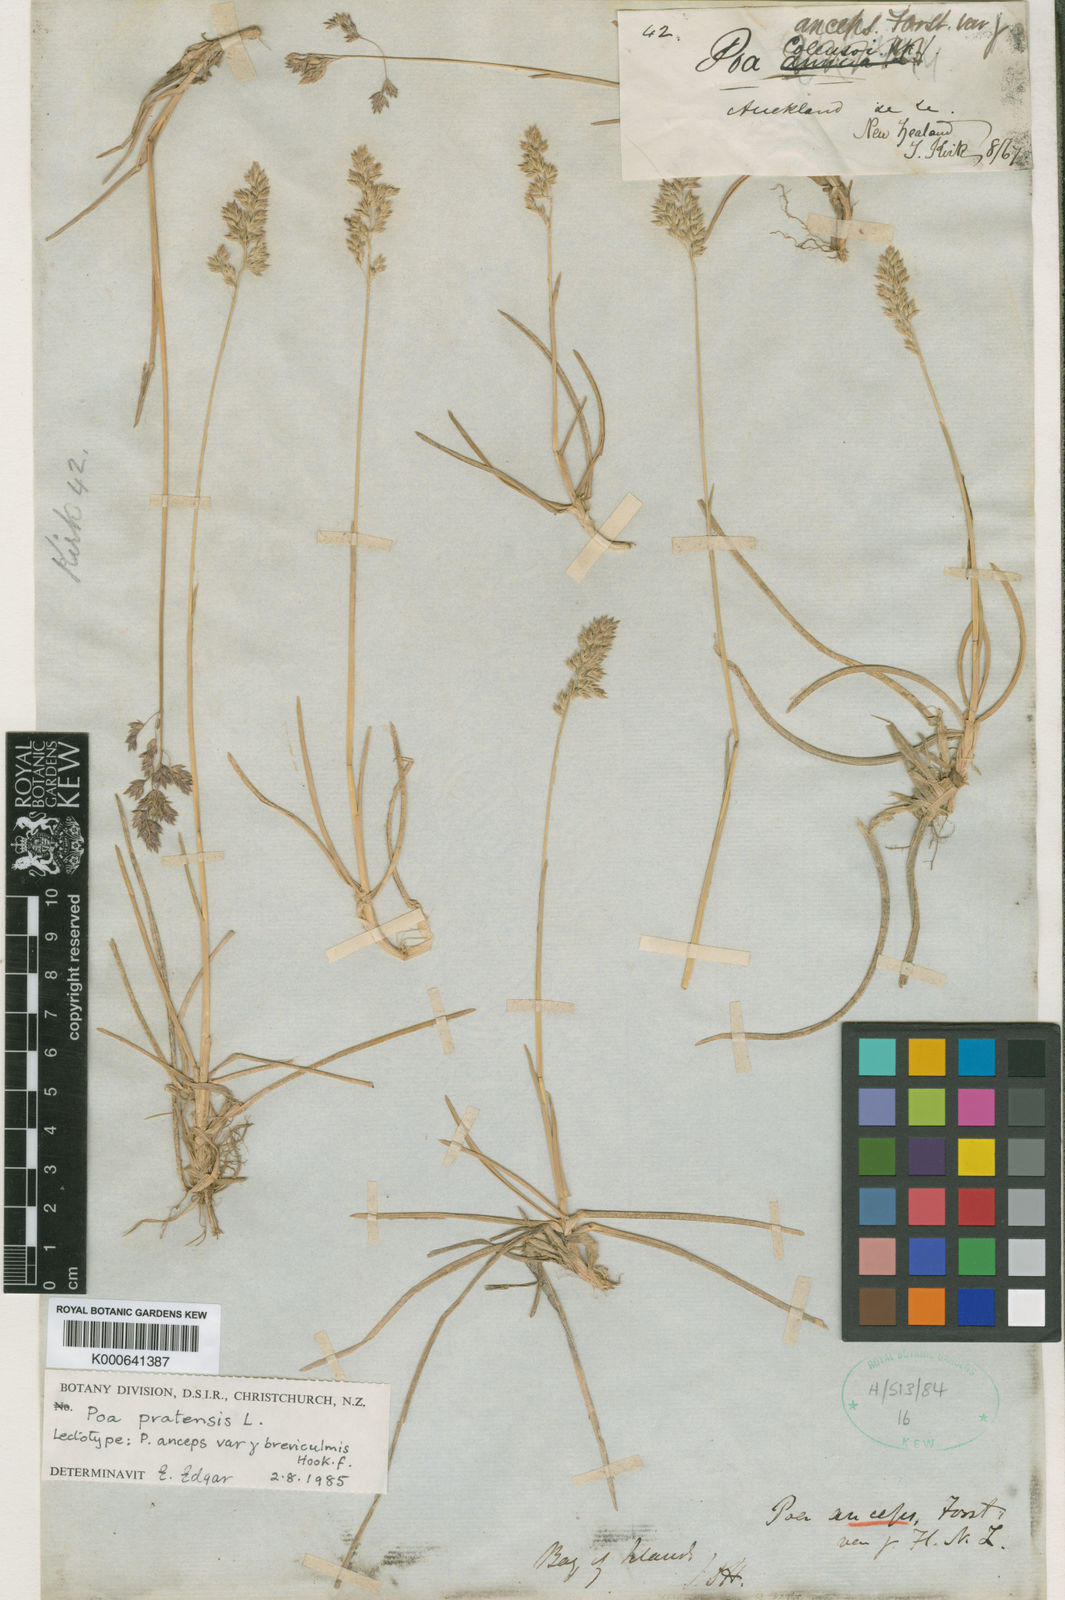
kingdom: Plantae
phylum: Tracheophyta
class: Liliopsida
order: Poales
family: Poaceae
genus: Poa
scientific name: Poa pratensis
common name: Kentucky bluegrass
